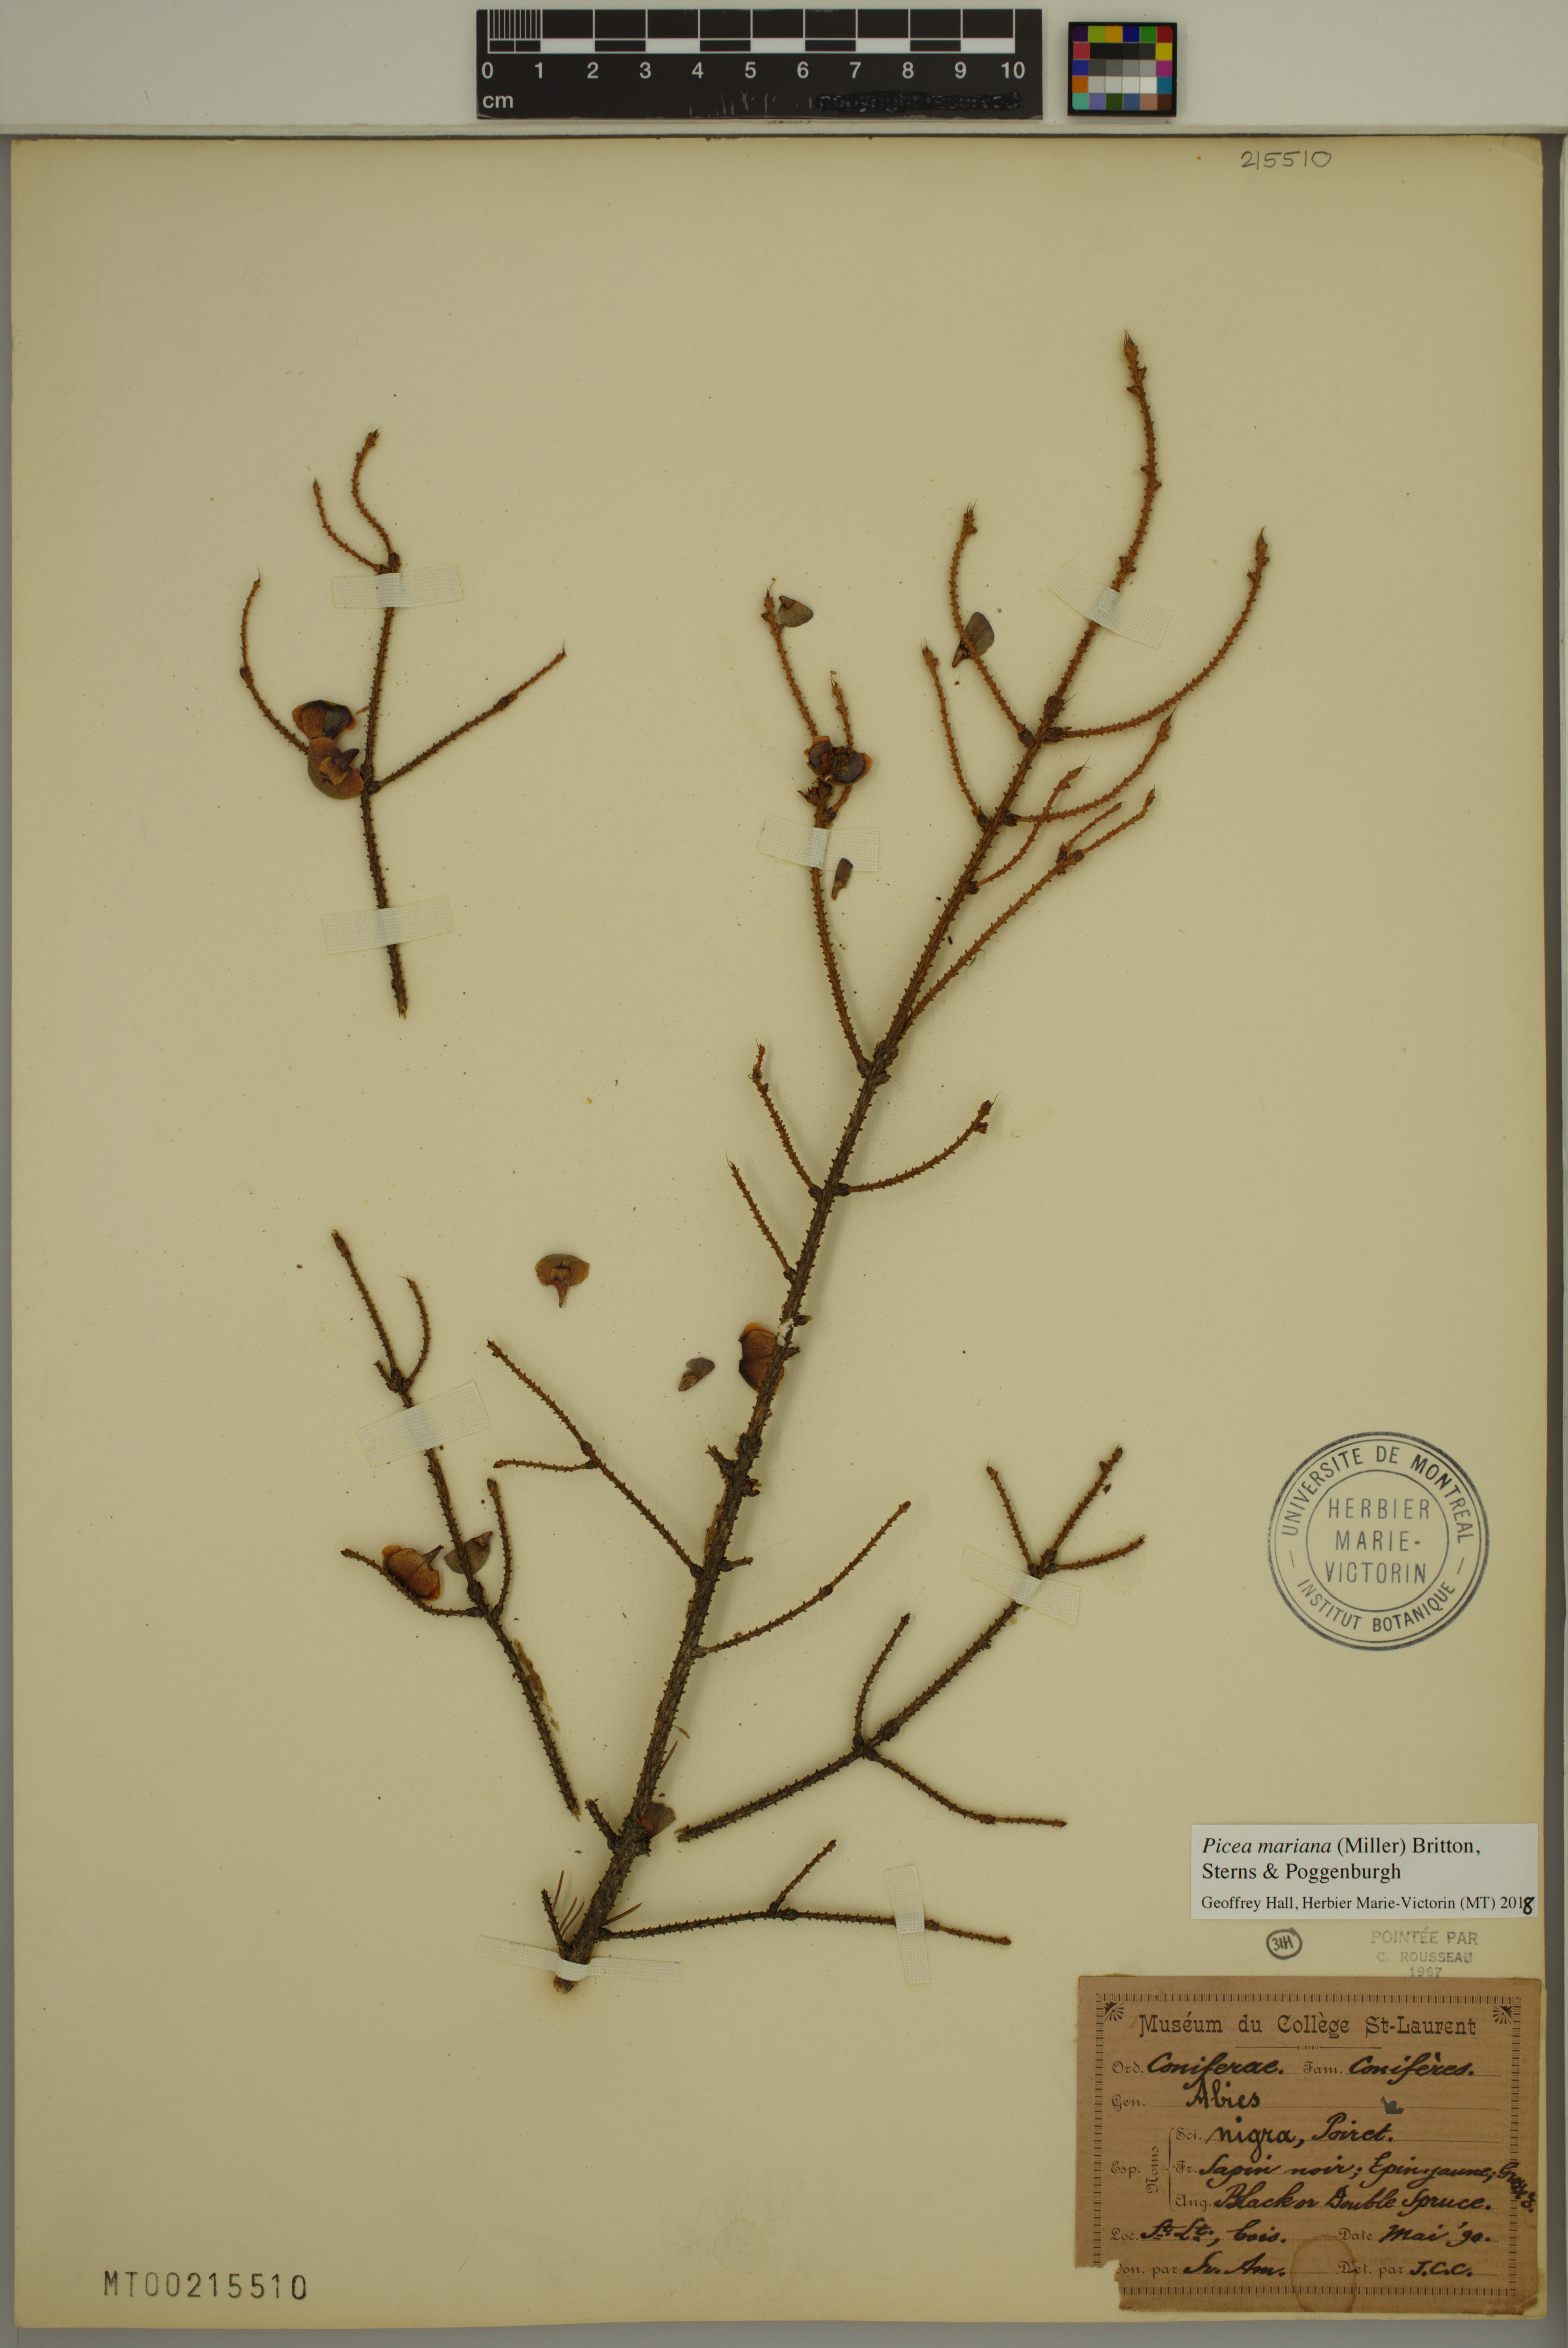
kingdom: Plantae
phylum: Tracheophyta
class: Pinopsida
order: Pinales
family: Pinaceae
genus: Picea
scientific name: Picea mariana
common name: Black spruce
